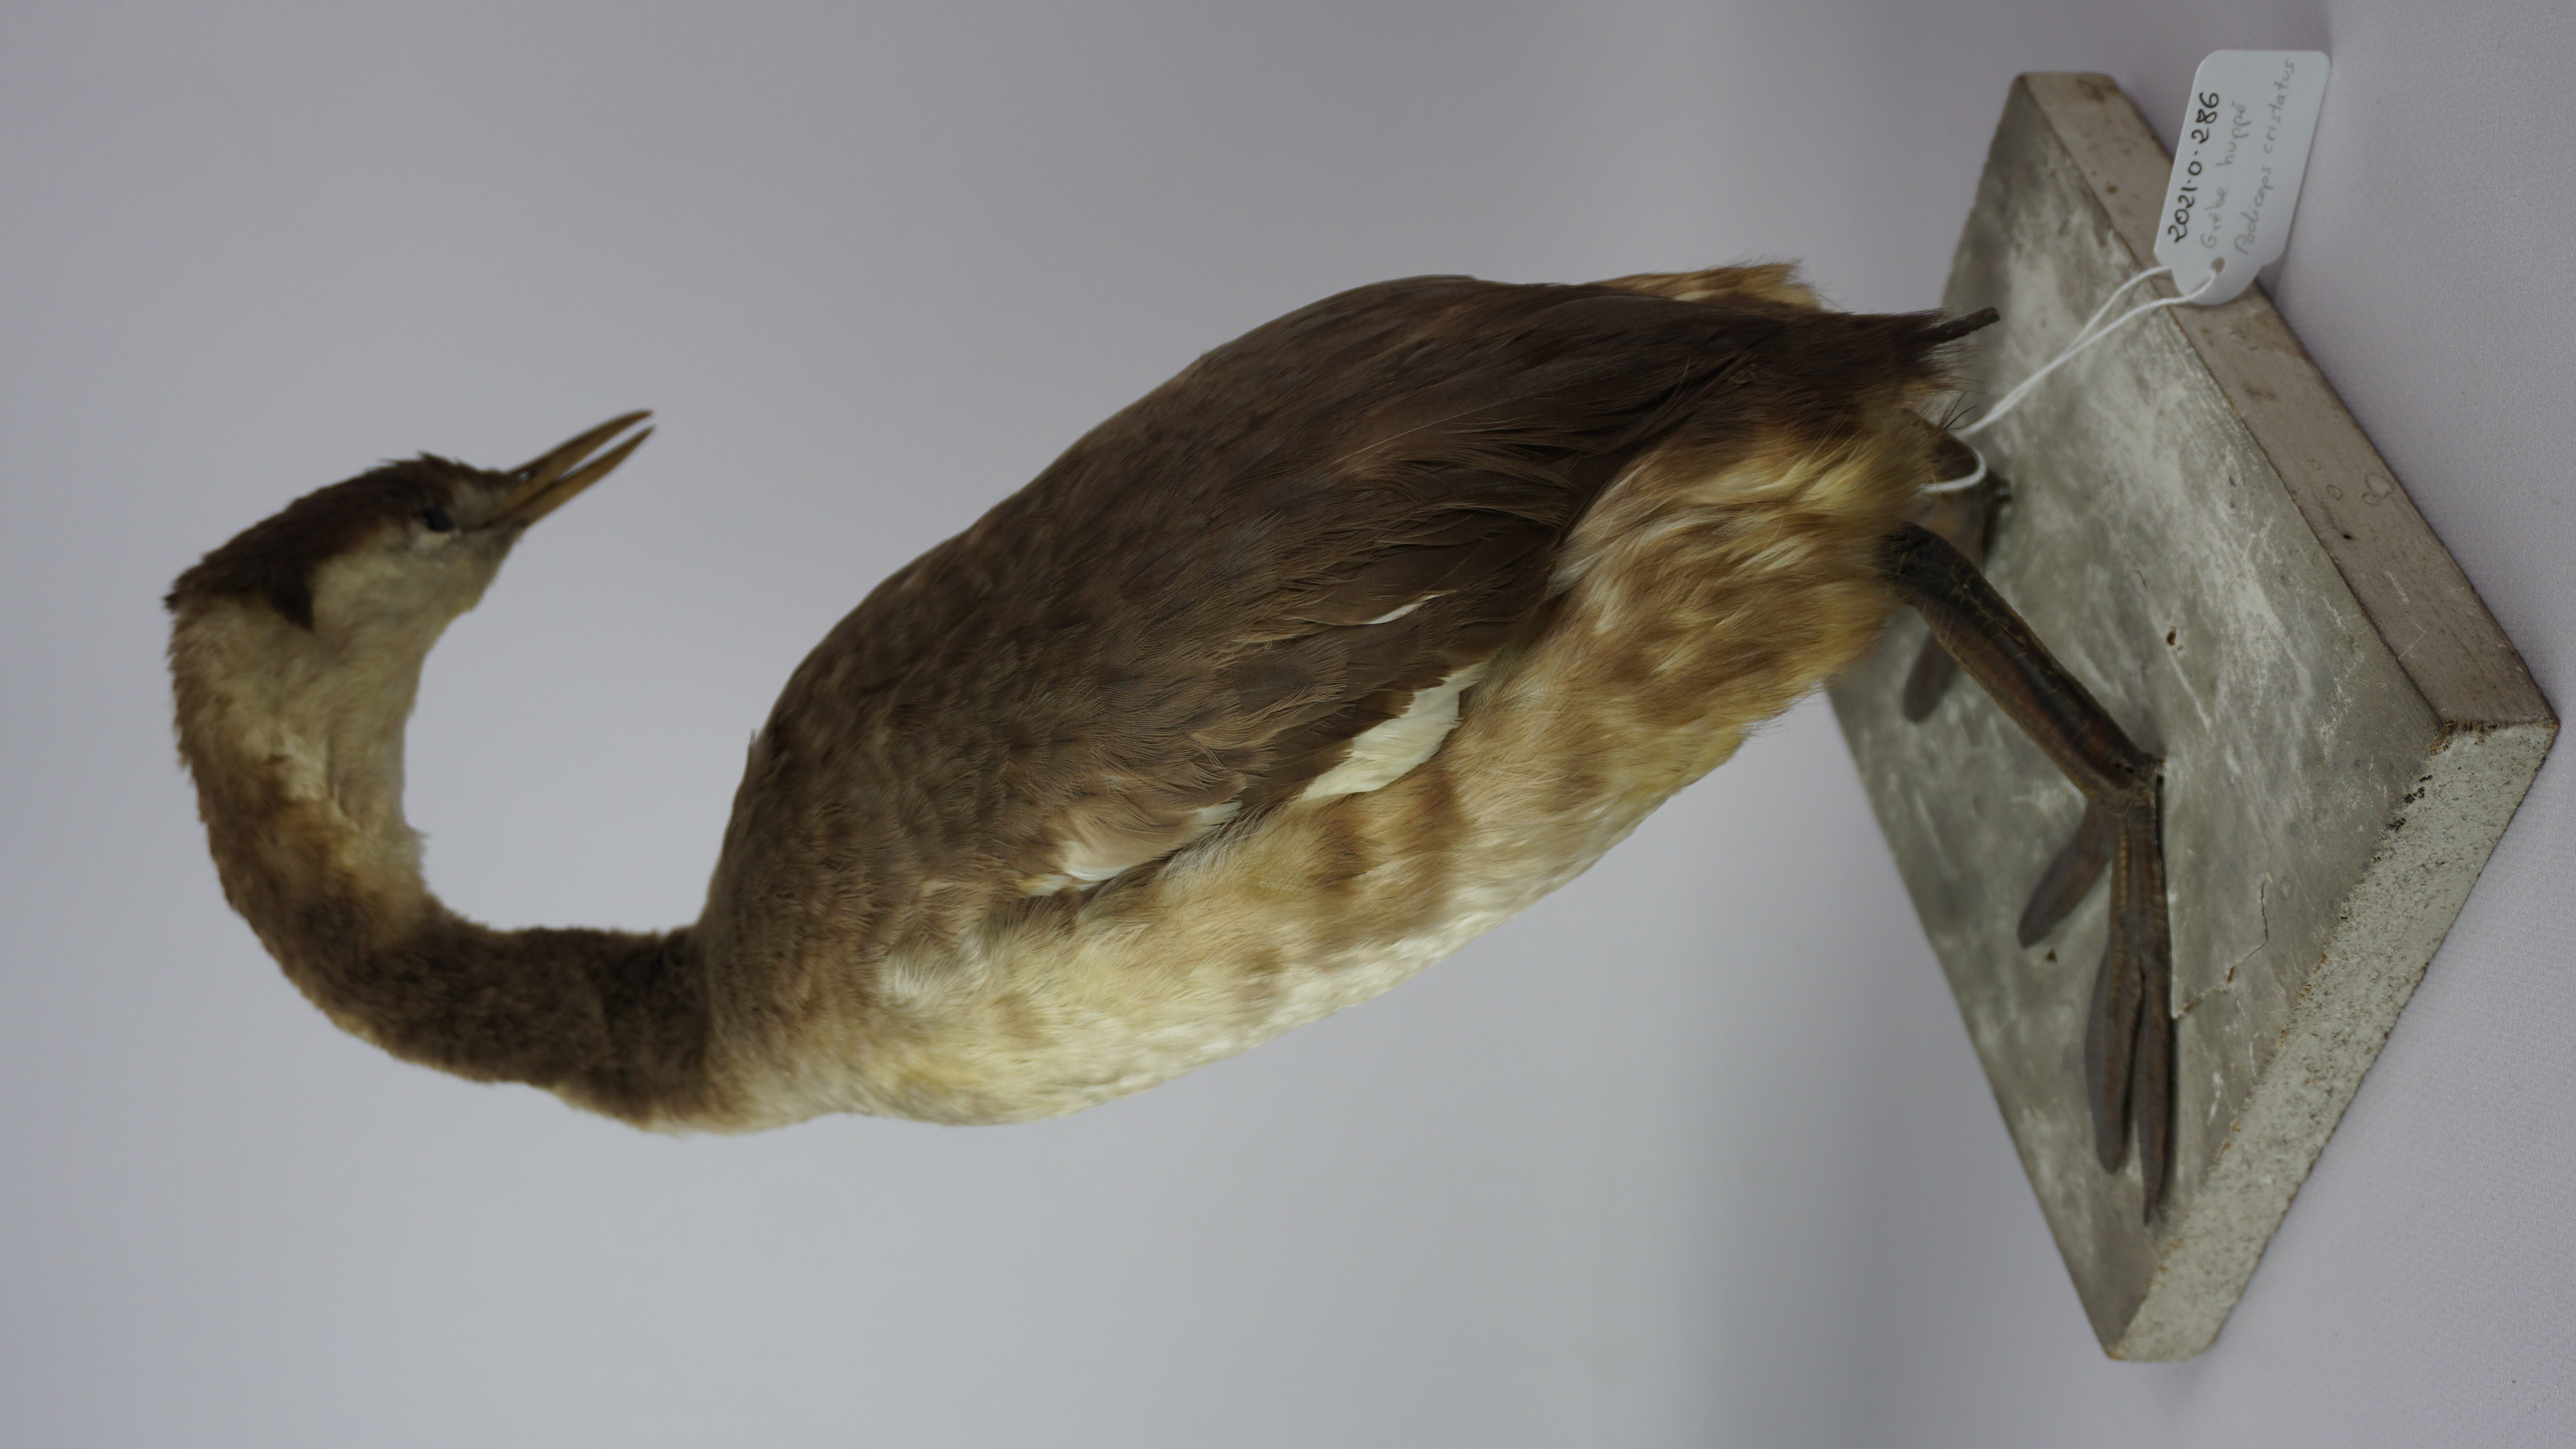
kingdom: Animalia
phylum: Chordata
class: Aves
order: Podicipediformes
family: Podicipedidae
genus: Podiceps
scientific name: Podiceps cristatus
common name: Great crested grebe
